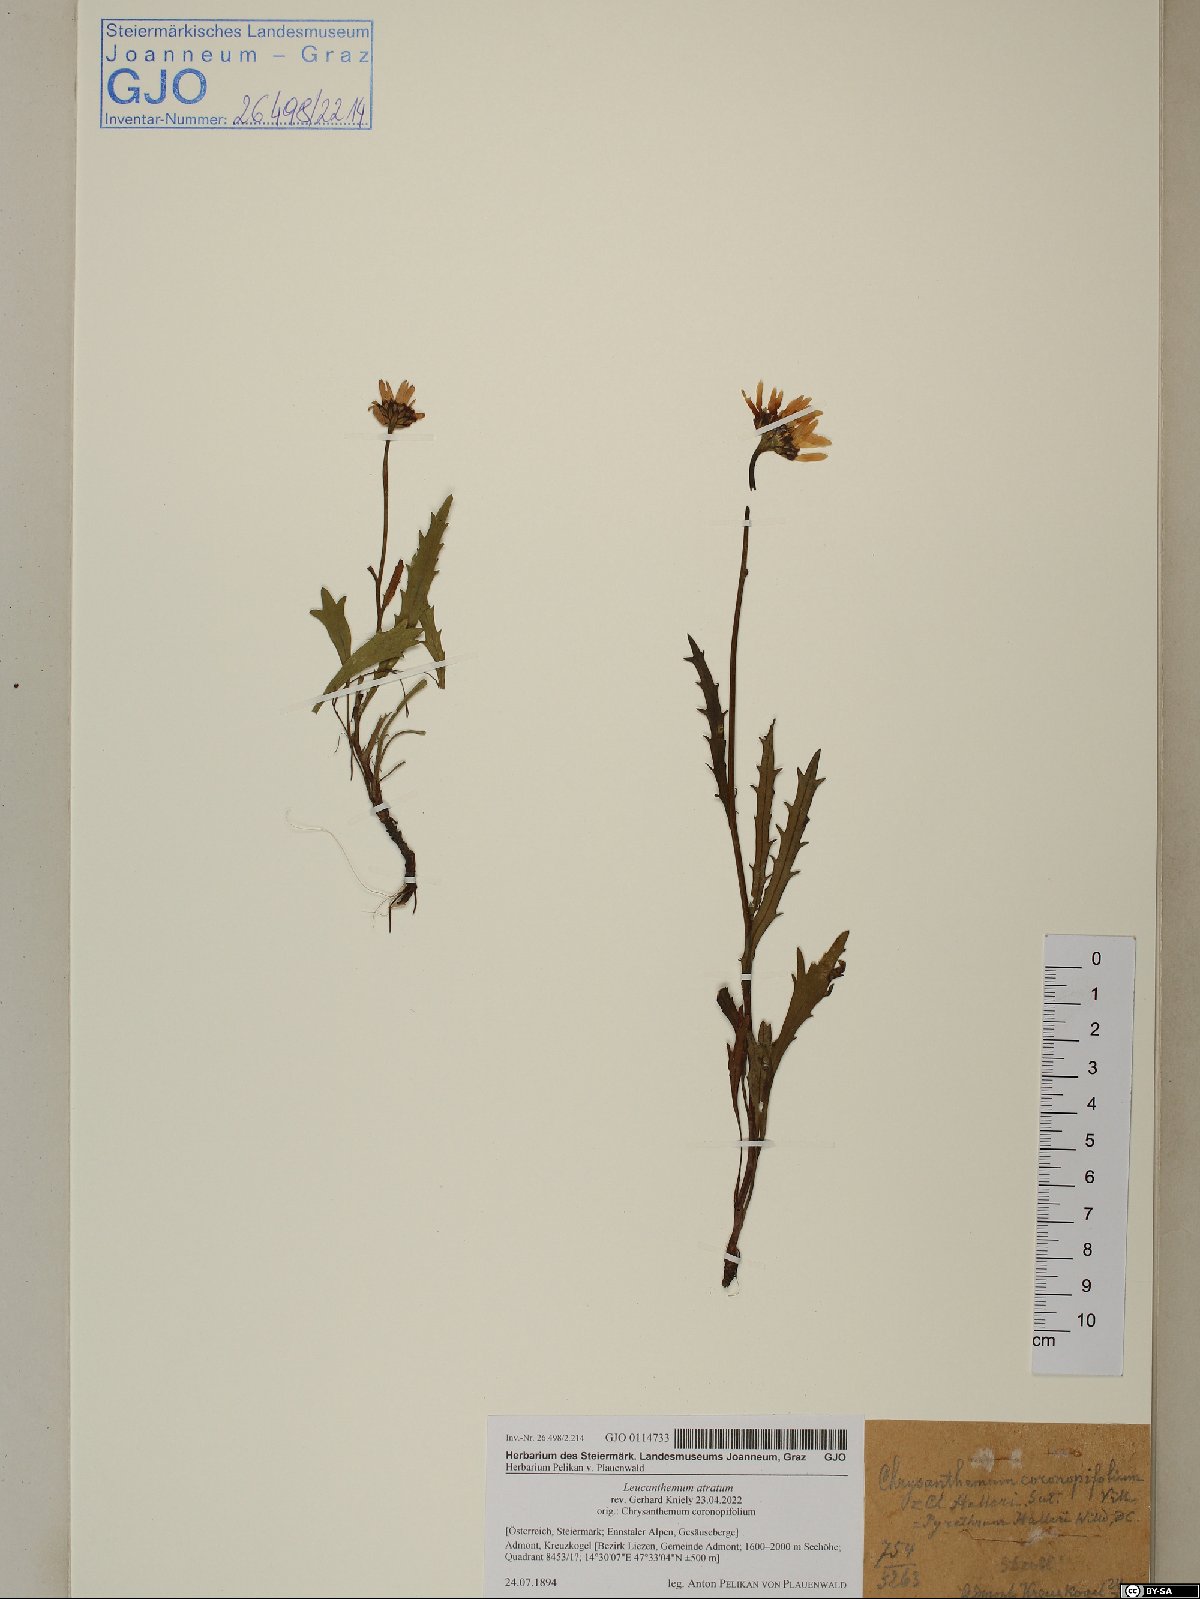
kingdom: Plantae
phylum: Tracheophyta
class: Magnoliopsida
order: Asterales
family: Asteraceae
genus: Leucanthemum
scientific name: Leucanthemum atratum
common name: Saw-leaved moon-daisy
